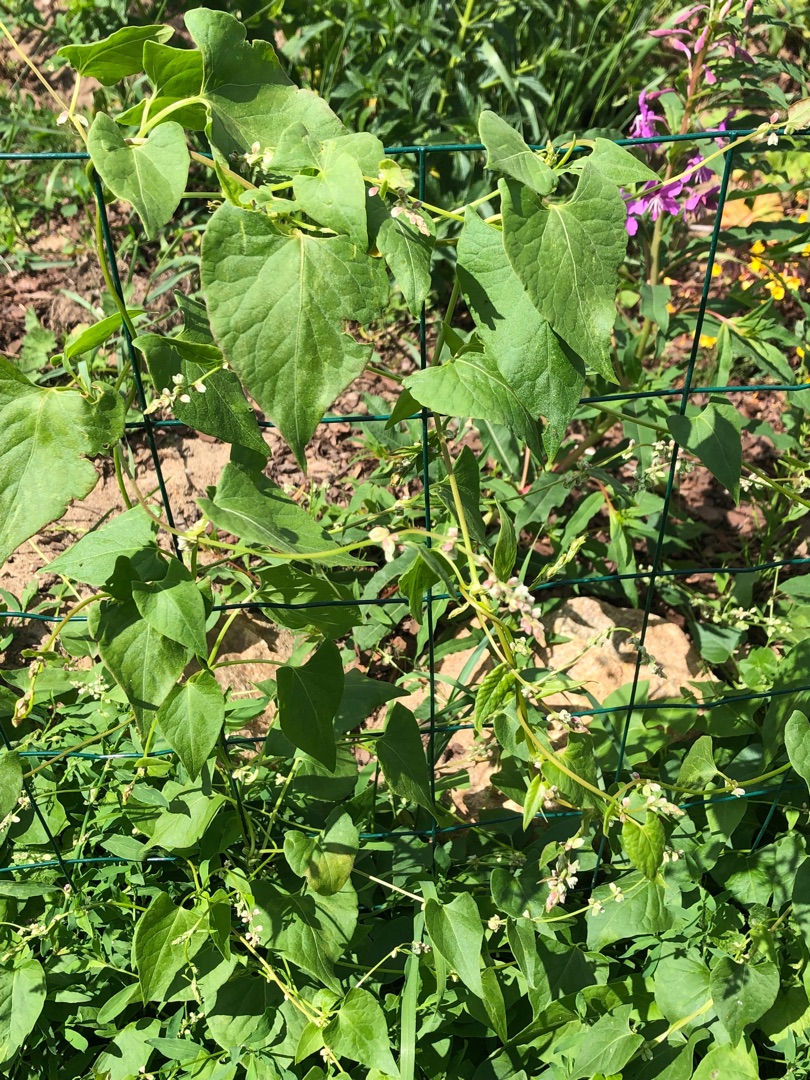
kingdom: Plantae
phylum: Tracheophyta
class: Magnoliopsida
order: Caryophyllales
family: Polygonaceae
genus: Fallopia
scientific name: Fallopia convolvulus
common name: Snerle-pileurt
